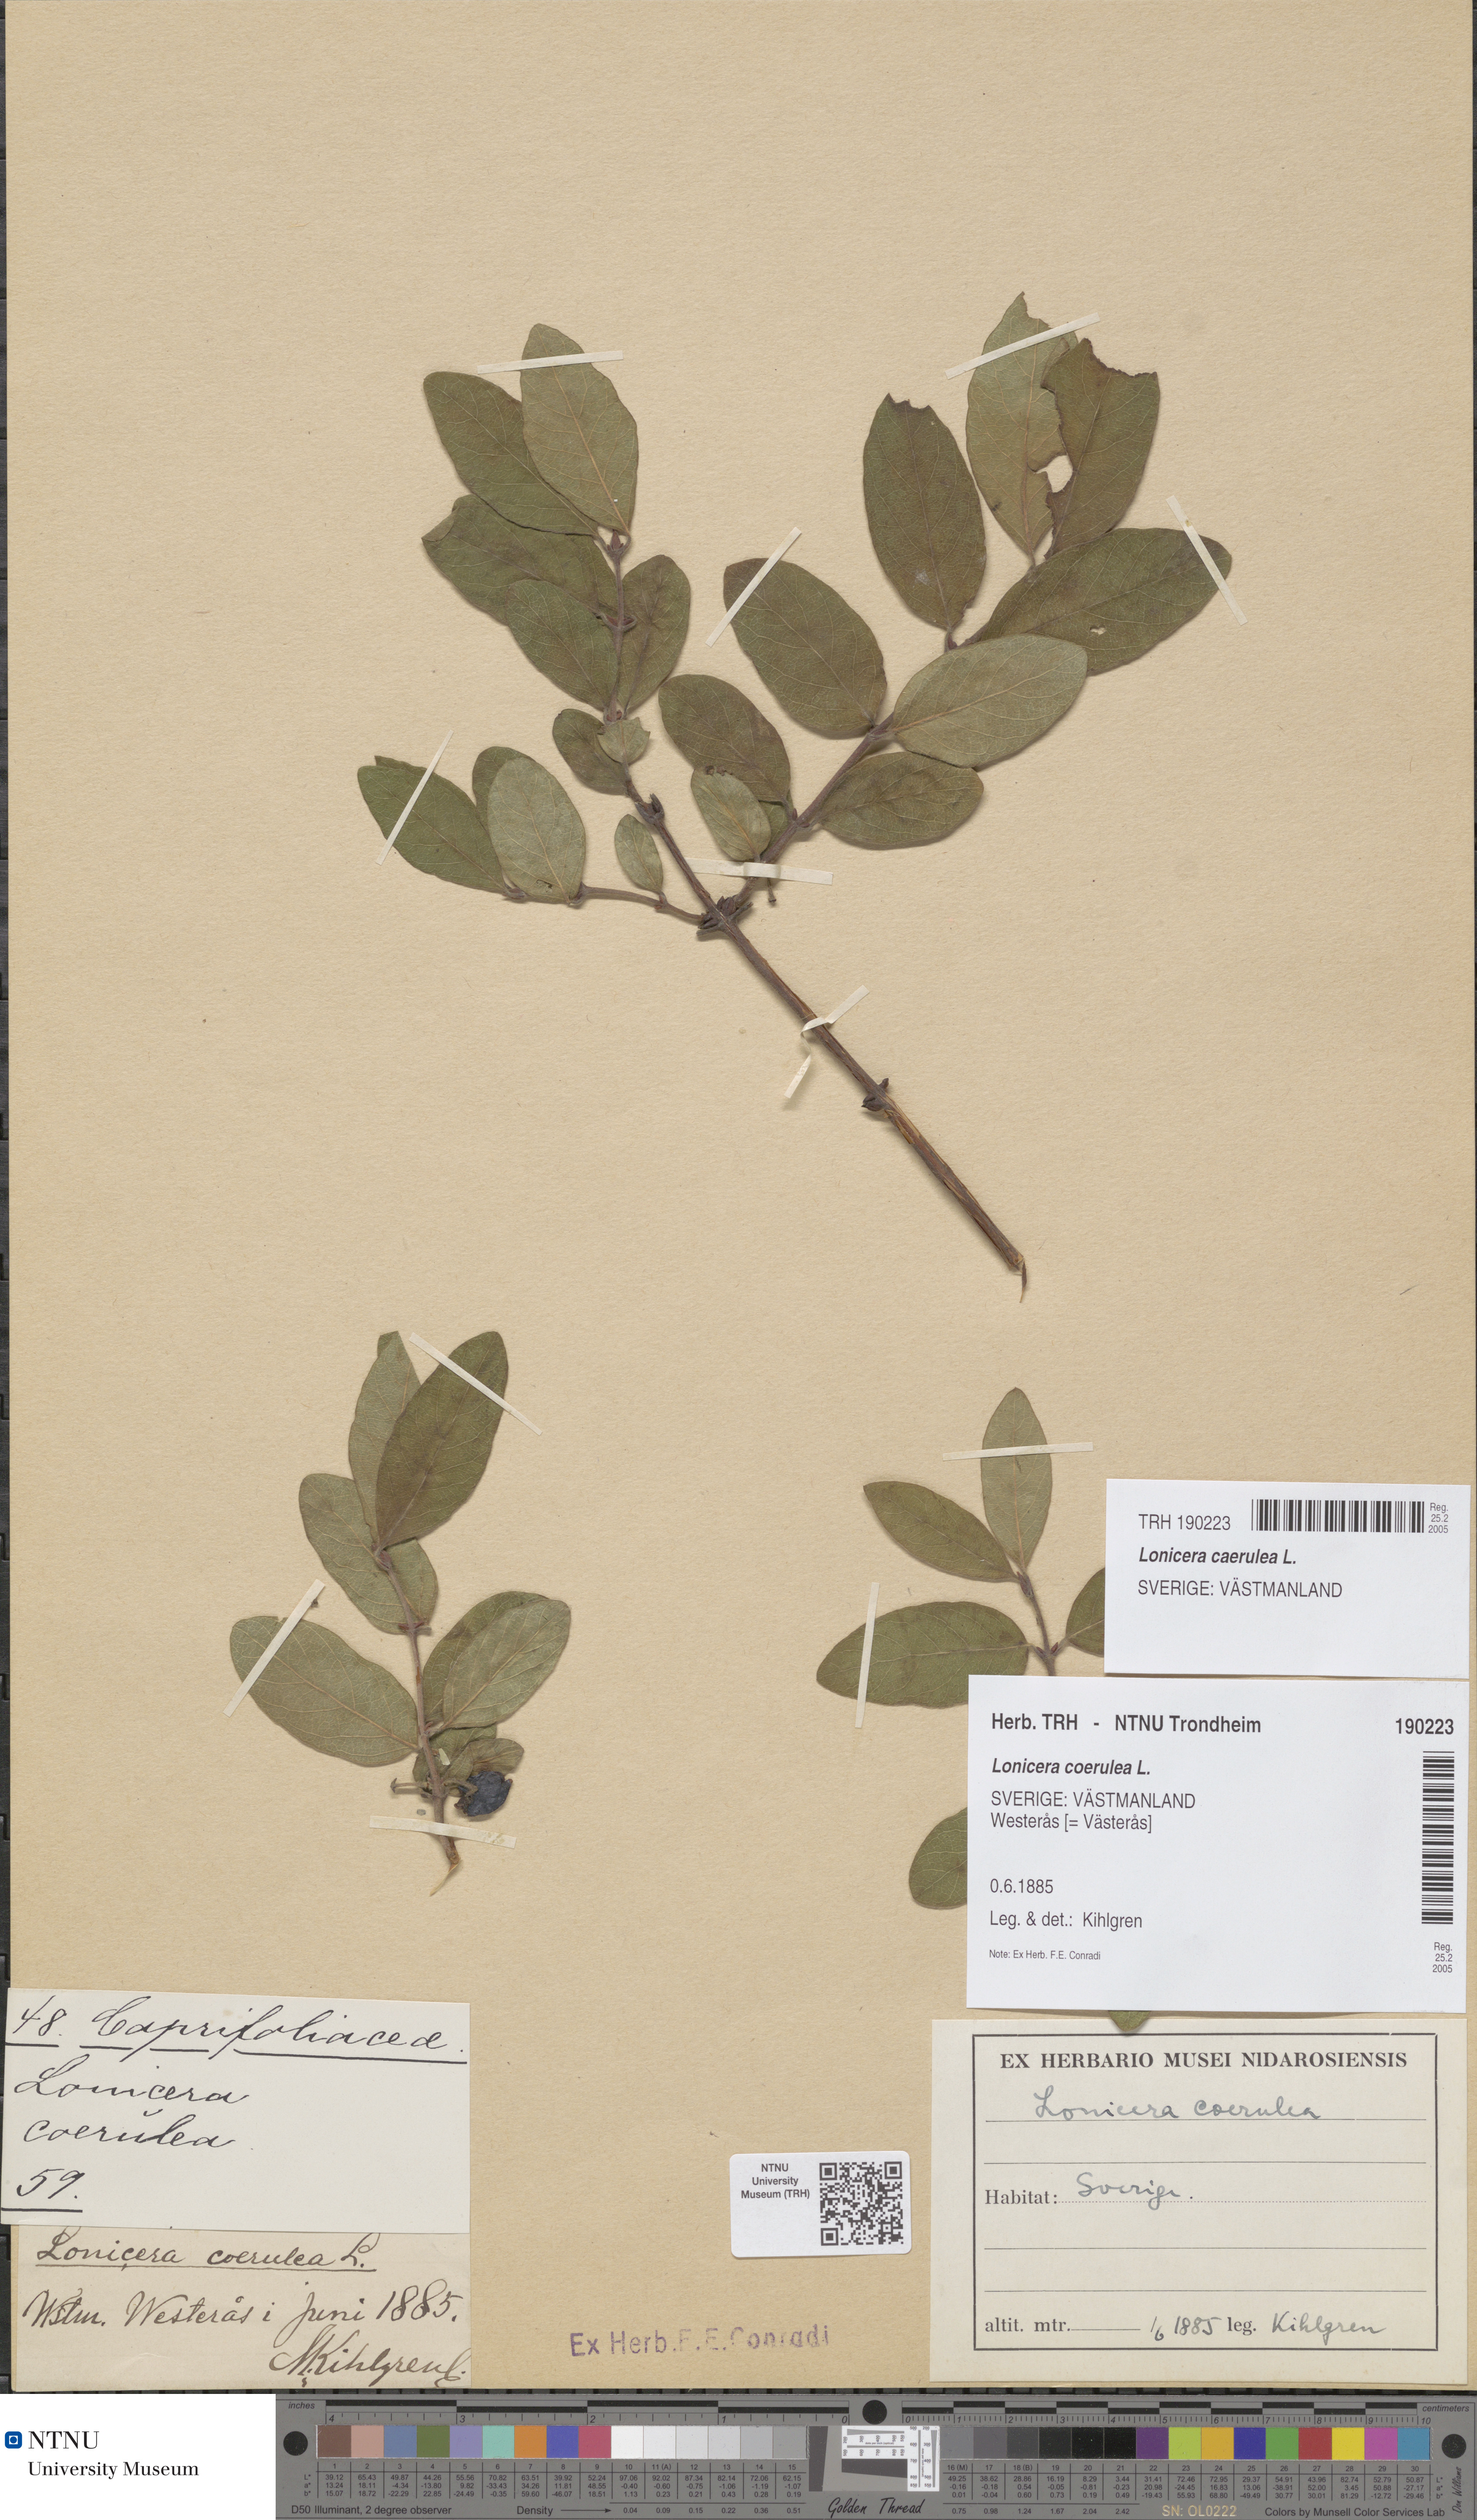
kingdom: Plantae
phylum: Tracheophyta
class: Magnoliopsida
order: Dipsacales
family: Caprifoliaceae
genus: Lonicera
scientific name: Lonicera caerulea
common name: Blue honeysuckle
